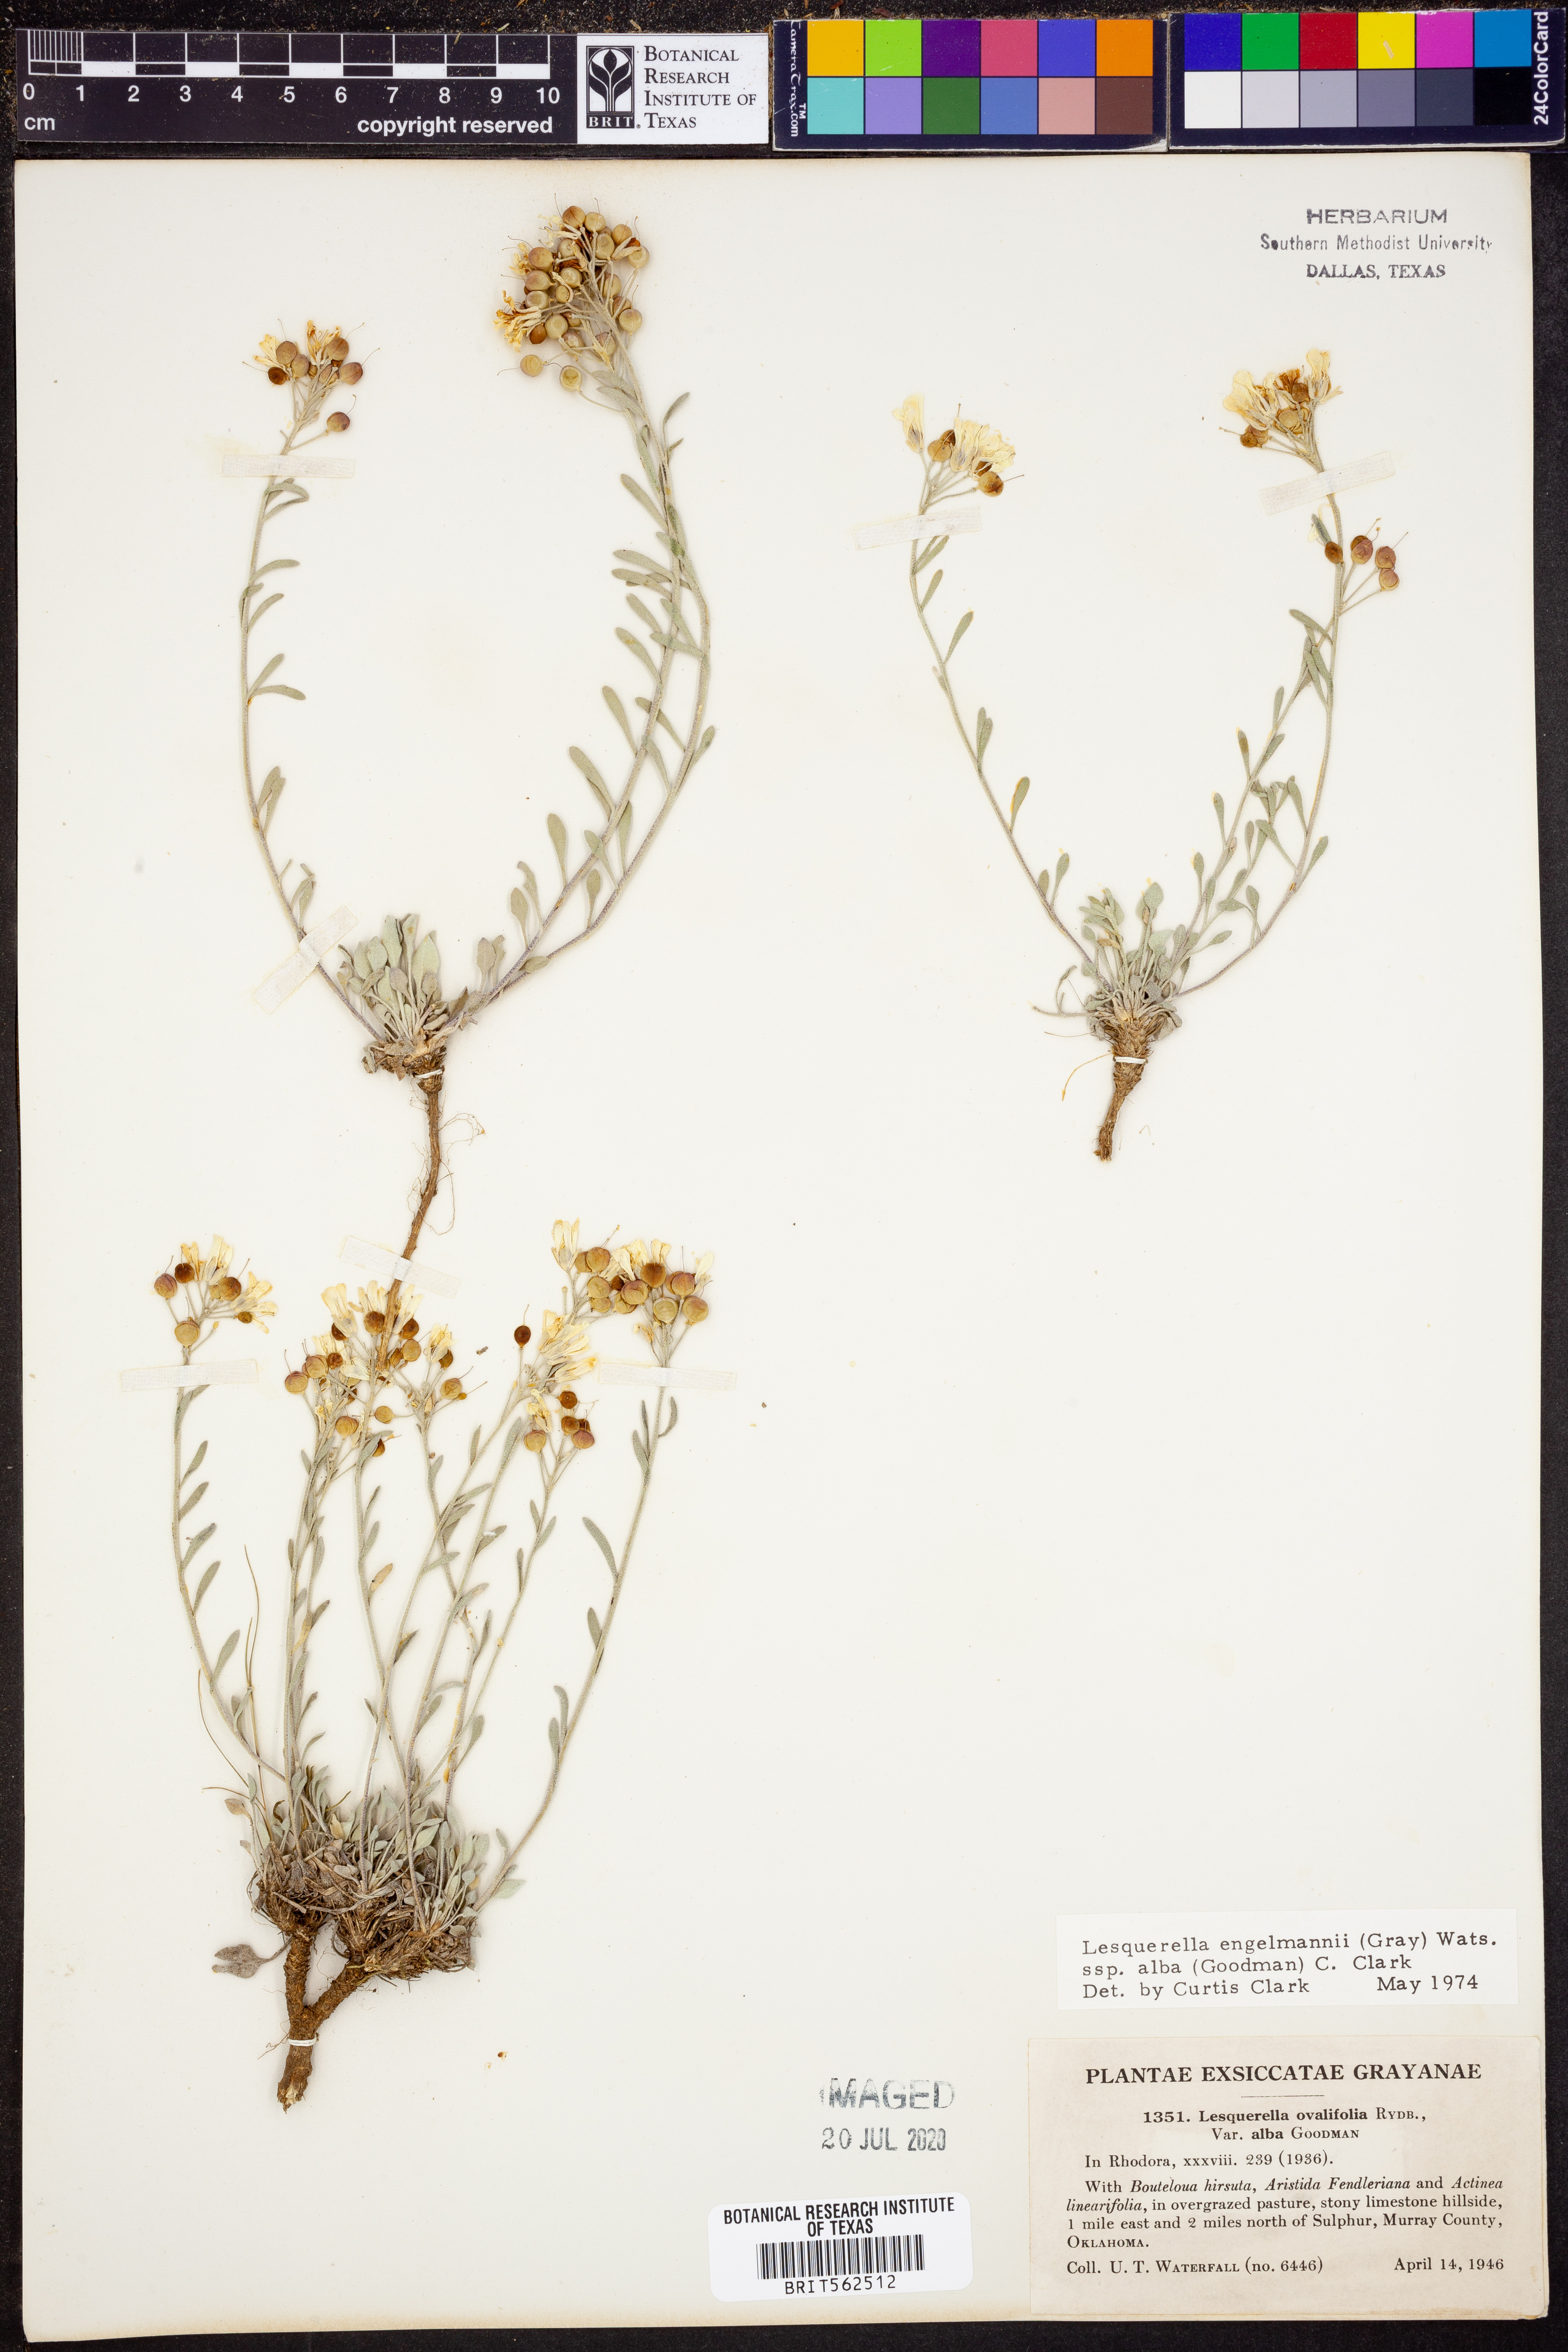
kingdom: Plantae
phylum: Tracheophyta
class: Magnoliopsida
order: Brassicales
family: Brassicaceae
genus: Physaria
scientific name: Physaria ovalifolia
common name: Round-leaf bladderpod
